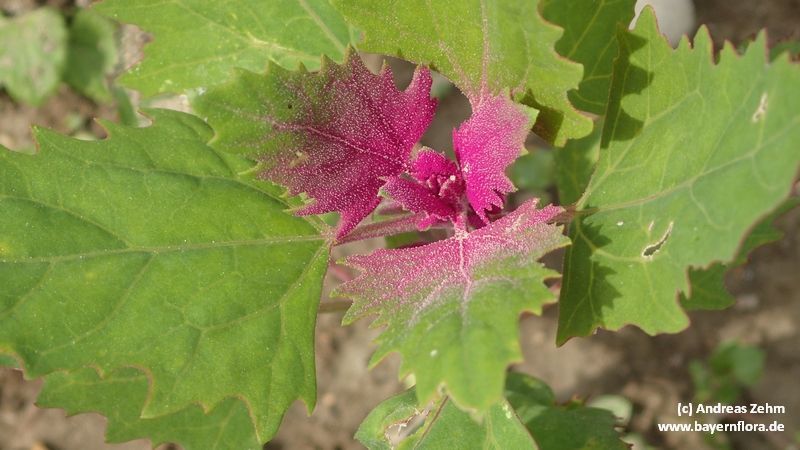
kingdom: Plantae
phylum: Tracheophyta
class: Magnoliopsida
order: Caryophyllales
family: Amaranthaceae
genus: Chenopodium
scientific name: Chenopodium giganteum
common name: Magentaspreen
